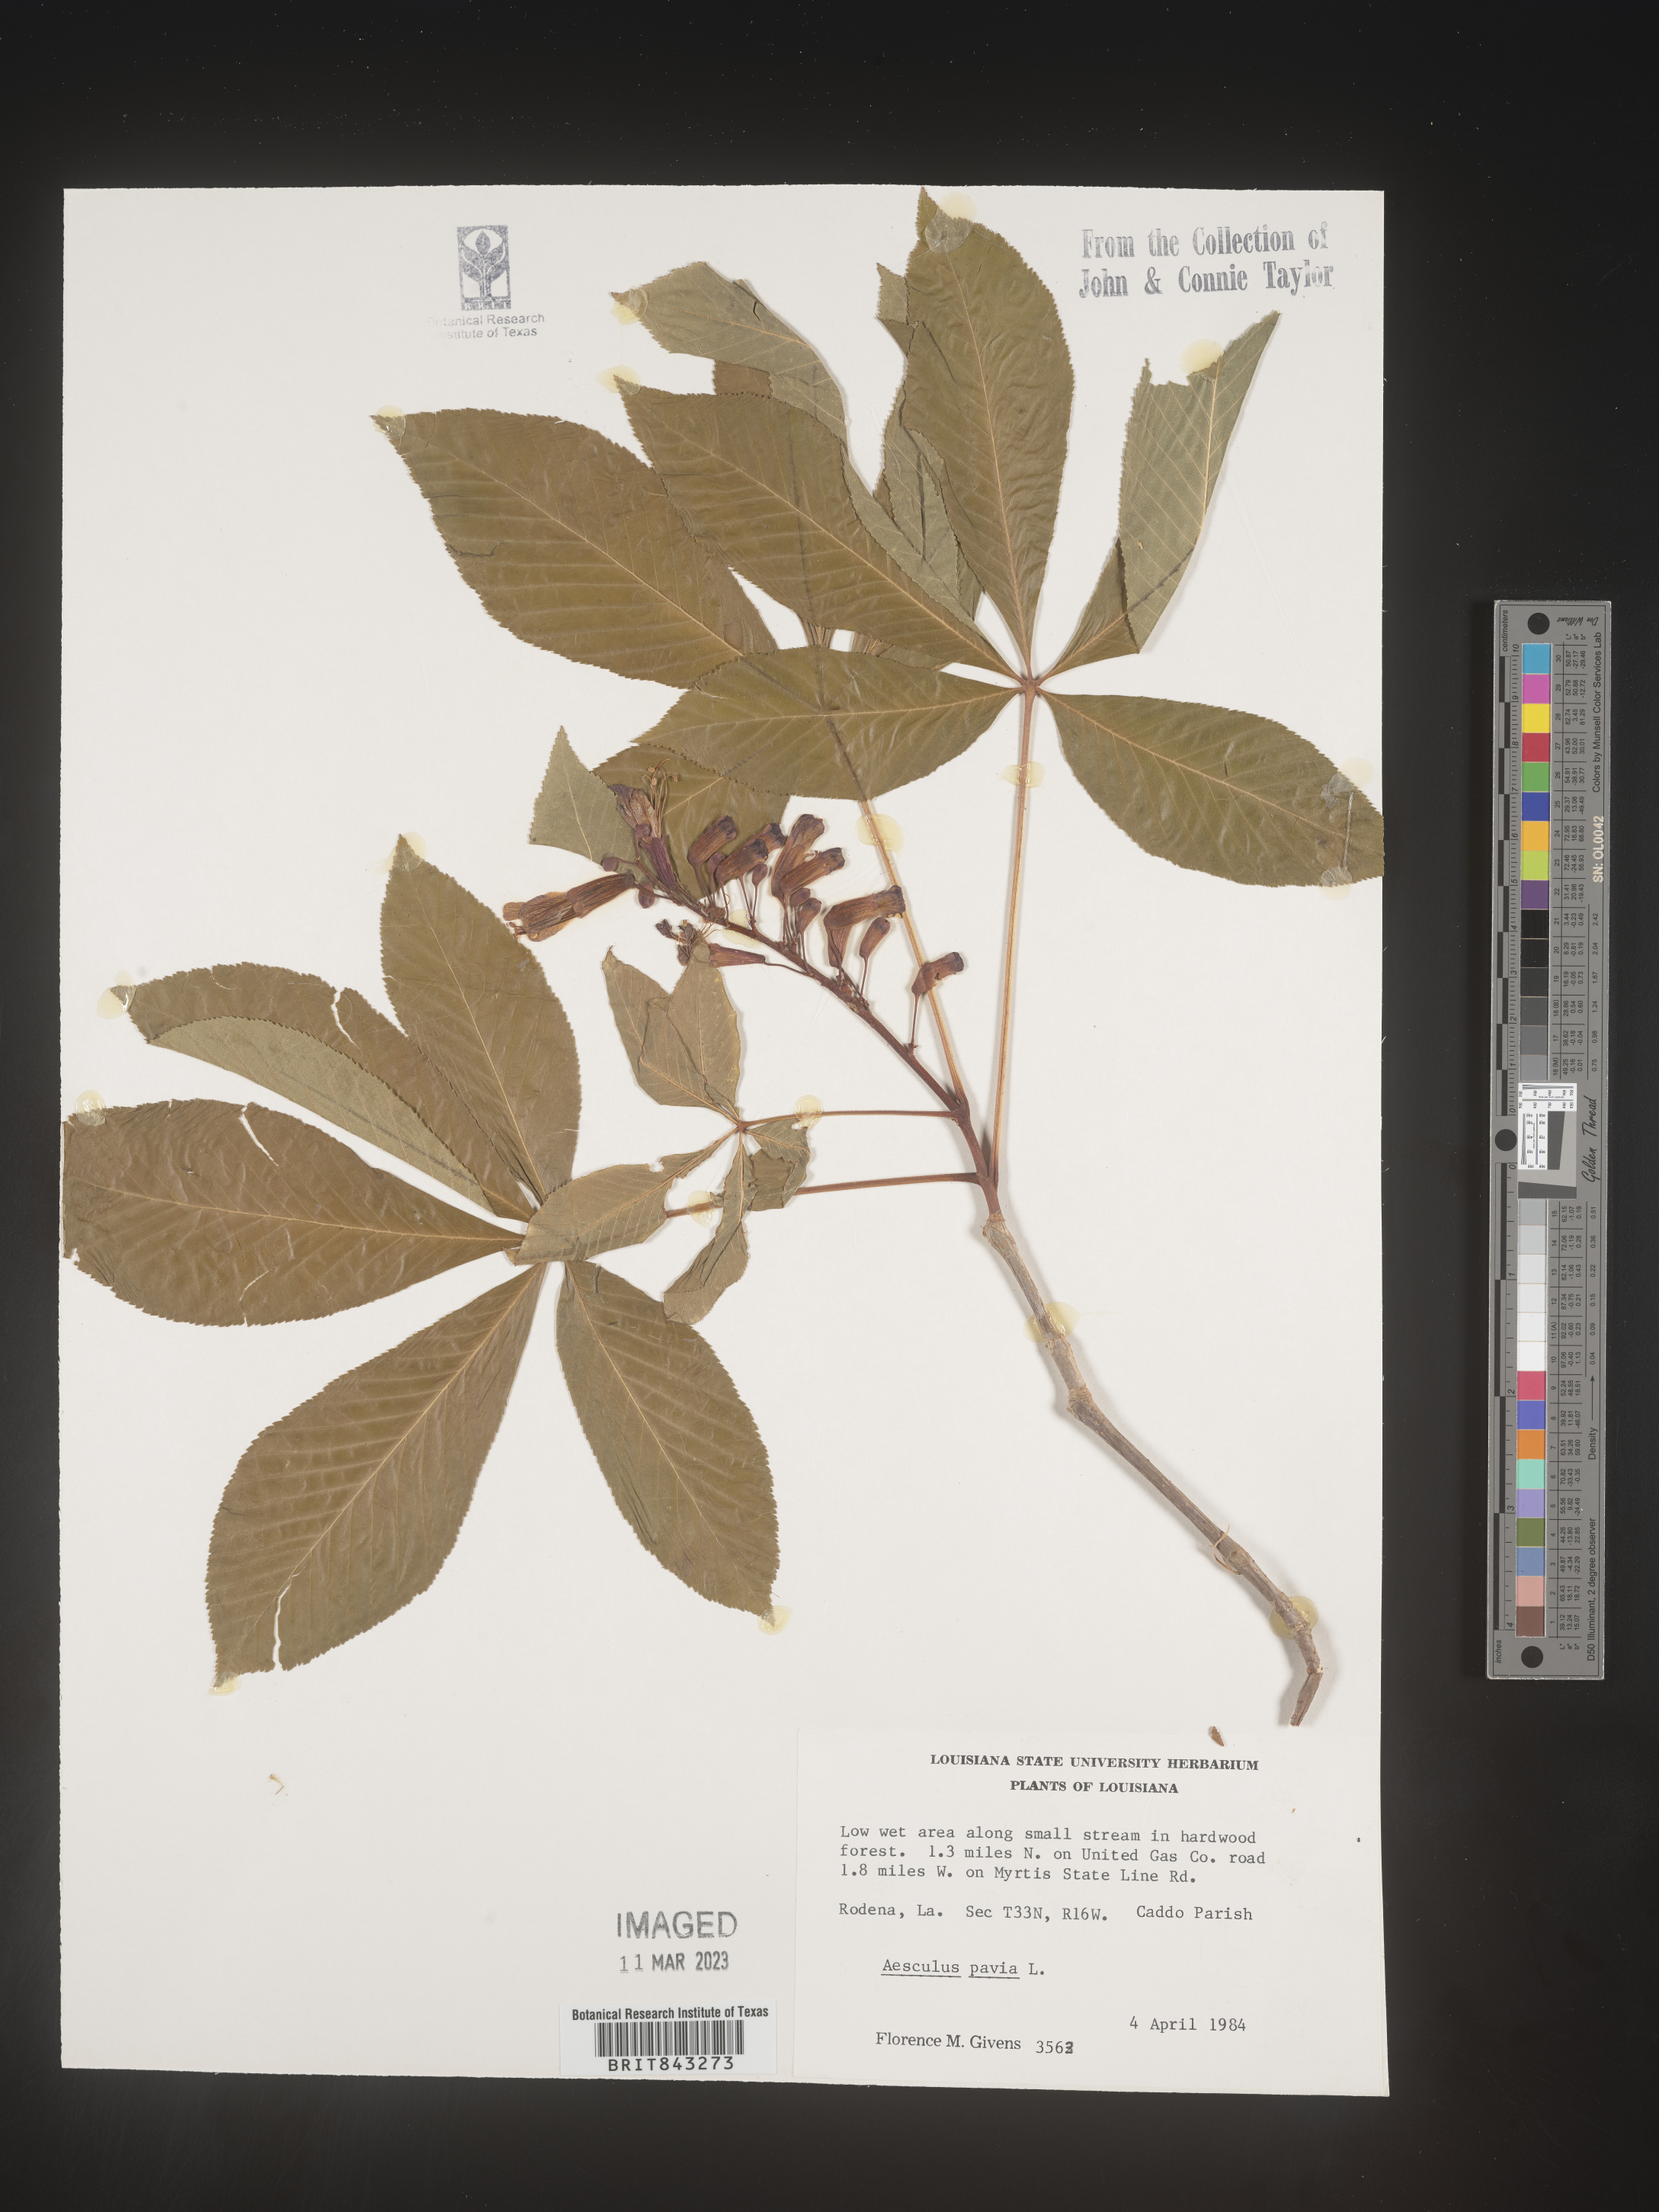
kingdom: Plantae
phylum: Tracheophyta
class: Magnoliopsida
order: Sapindales
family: Sapindaceae
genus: Aesculus
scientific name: Aesculus pavia
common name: Red buckeye
